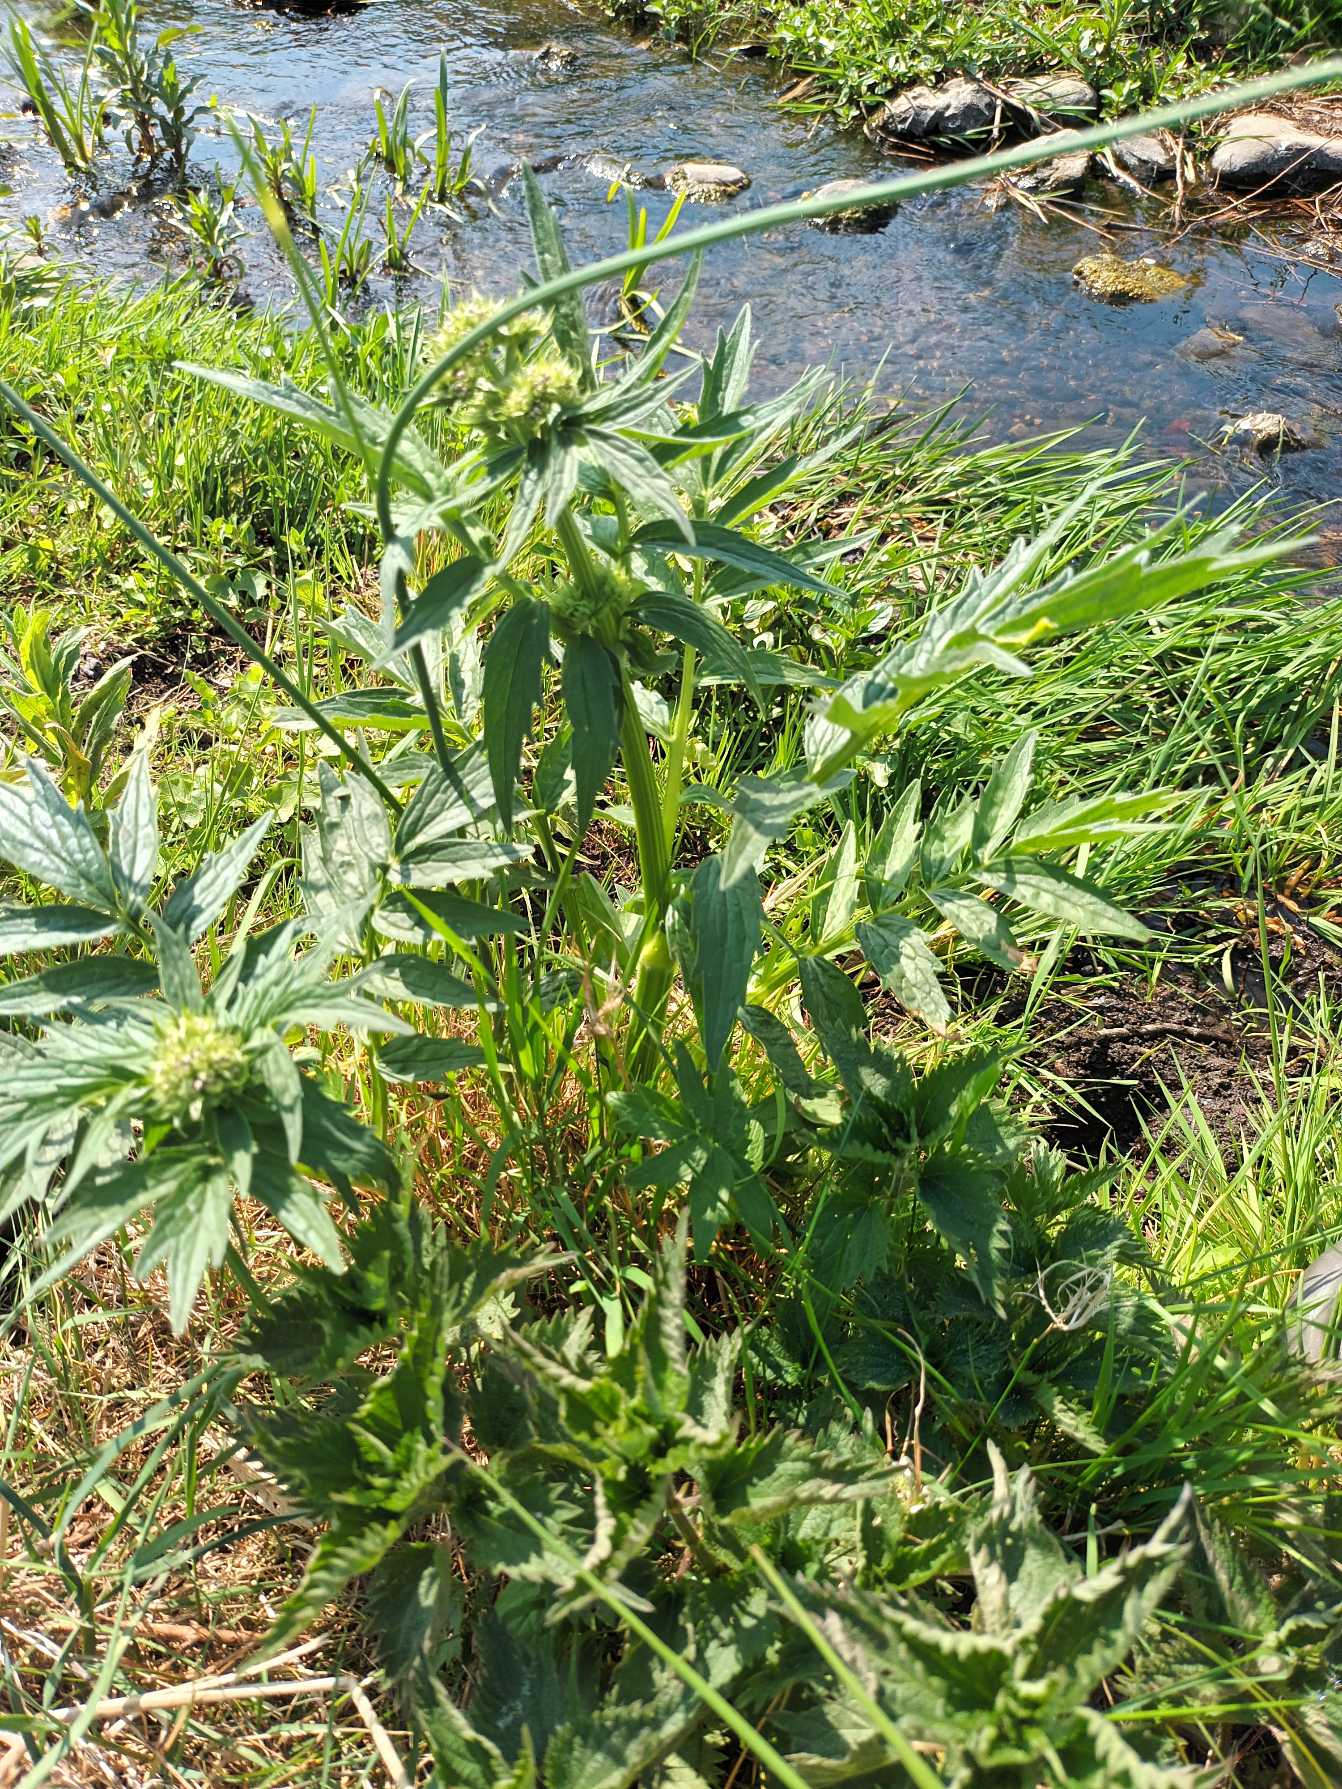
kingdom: Plantae
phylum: Tracheophyta
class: Magnoliopsida
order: Dipsacales
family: Caprifoliaceae
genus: Valeriana
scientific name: Valeriana excelsa
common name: Krybende baldrian
